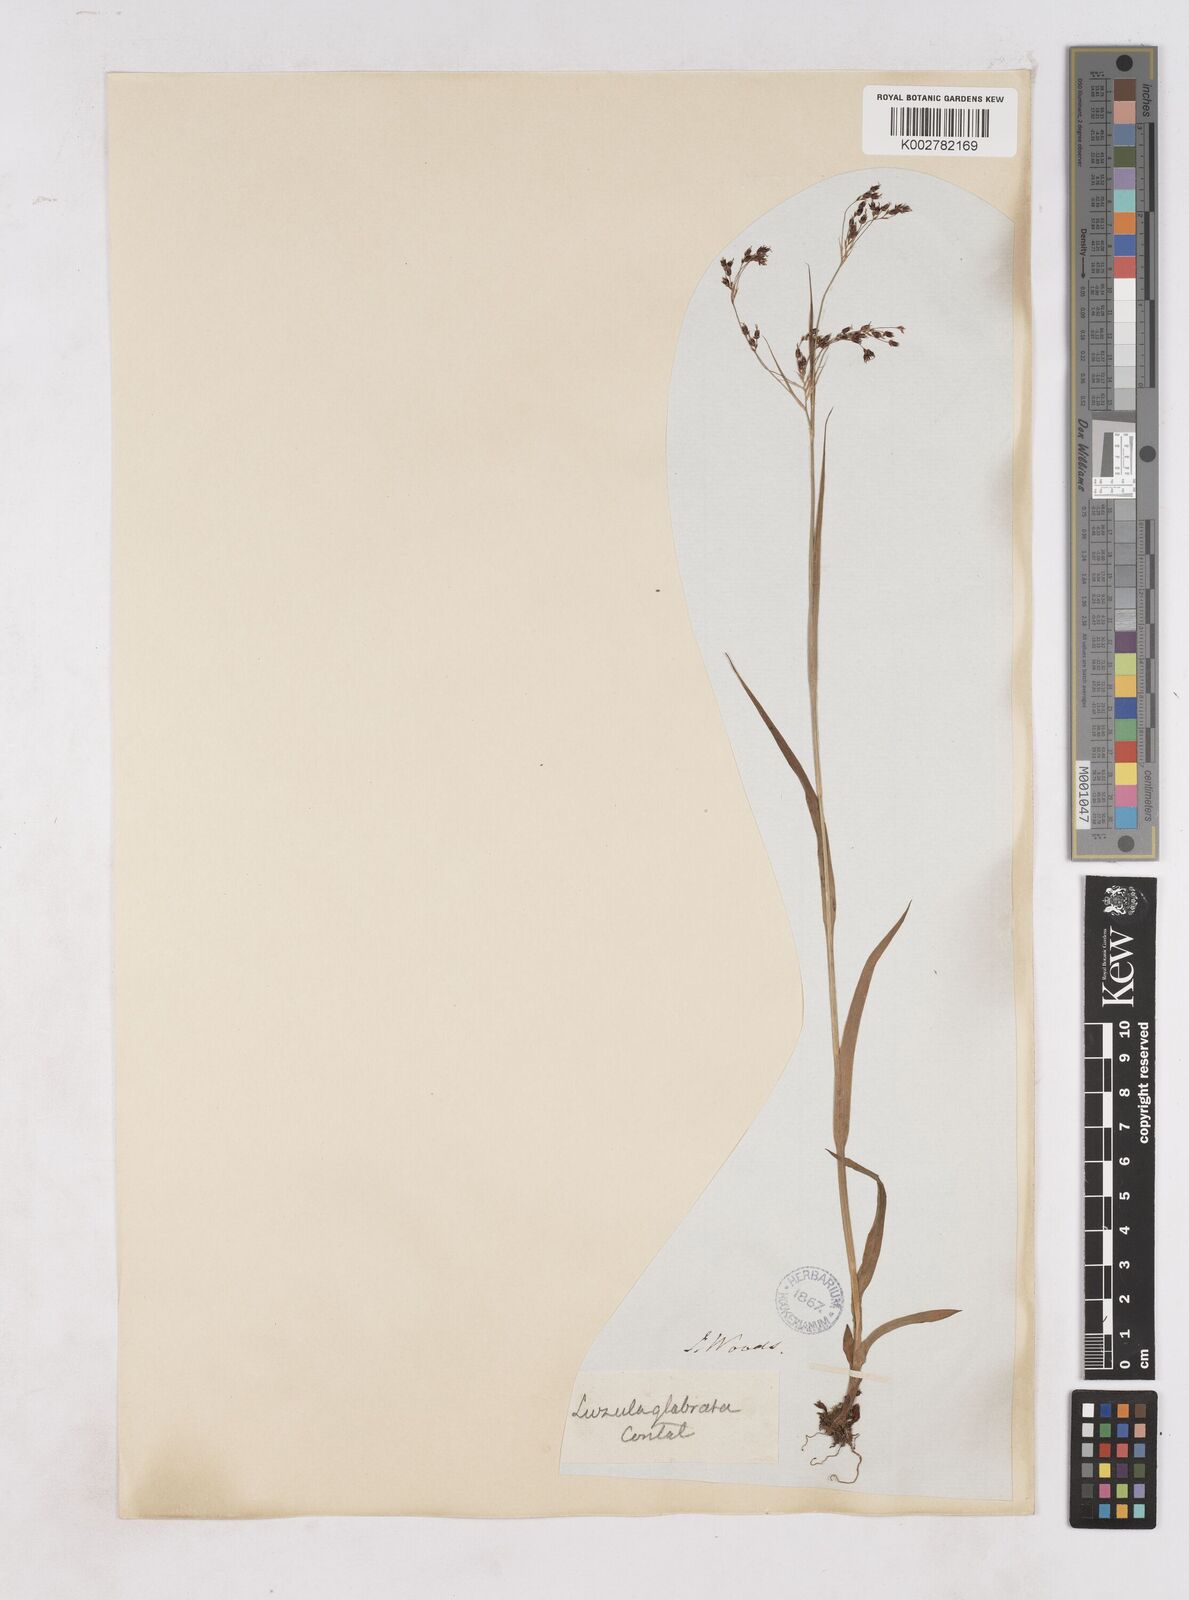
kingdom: Plantae
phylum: Tracheophyta
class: Liliopsida
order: Poales
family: Juncaceae
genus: Luzula
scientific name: Luzula glabrata
